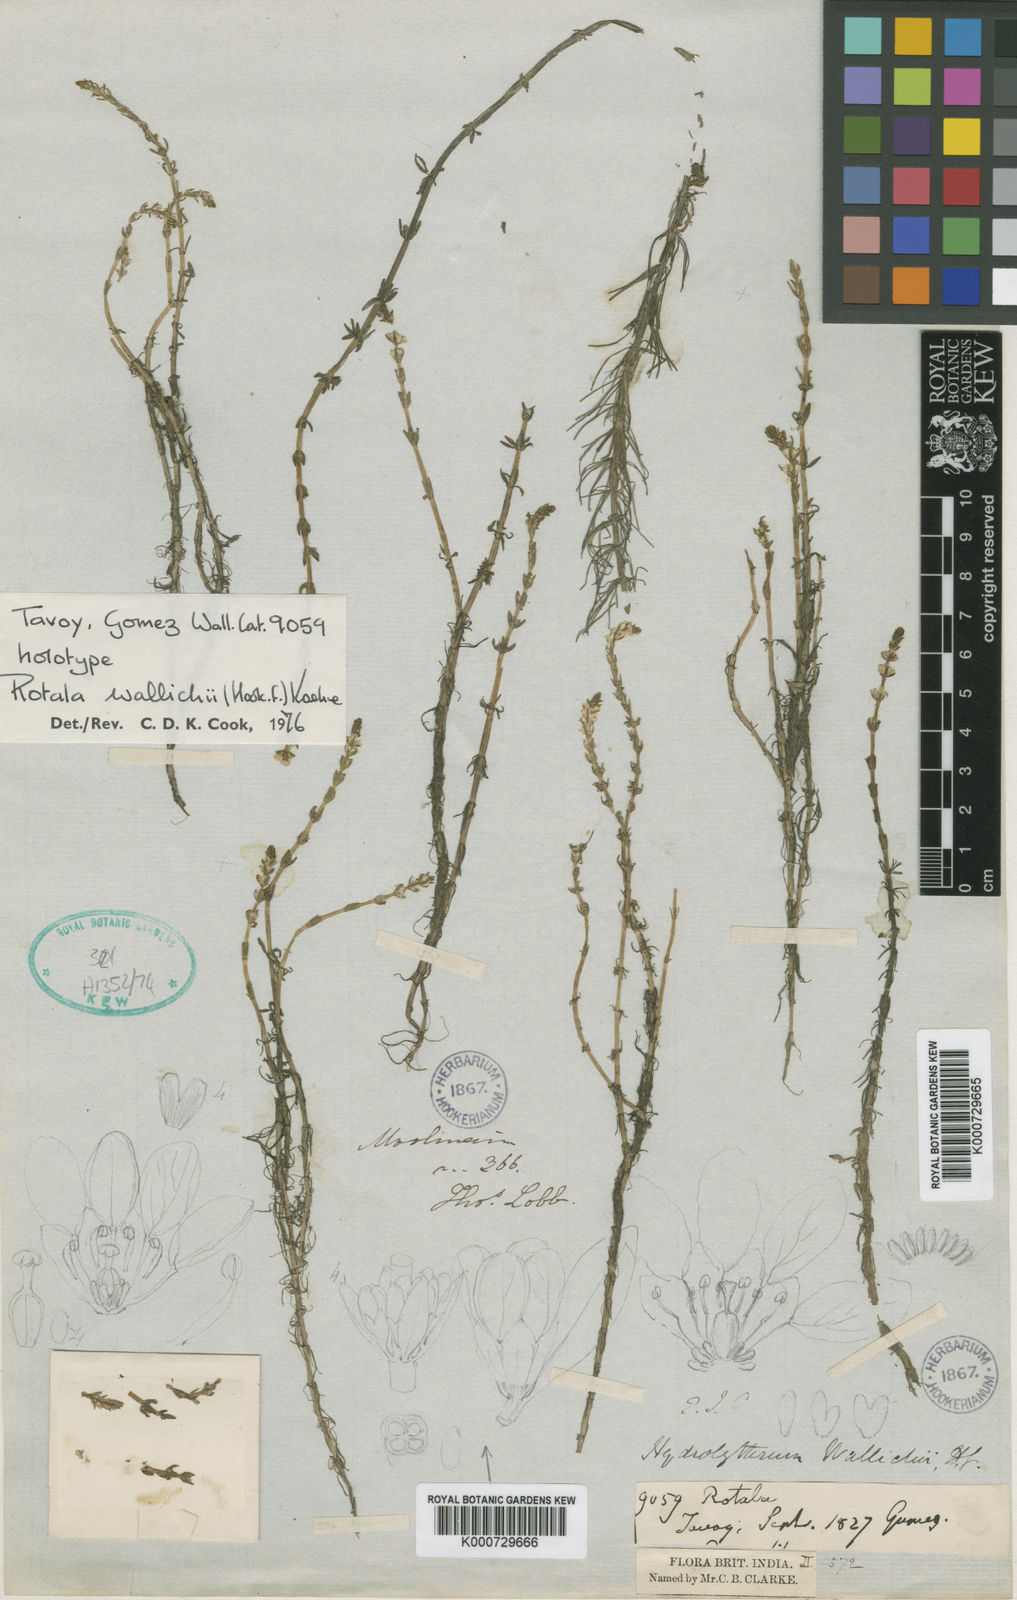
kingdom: Plantae
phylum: Tracheophyta
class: Magnoliopsida
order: Myrtales
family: Lythraceae
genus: Rotala
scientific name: Rotala wallichii
